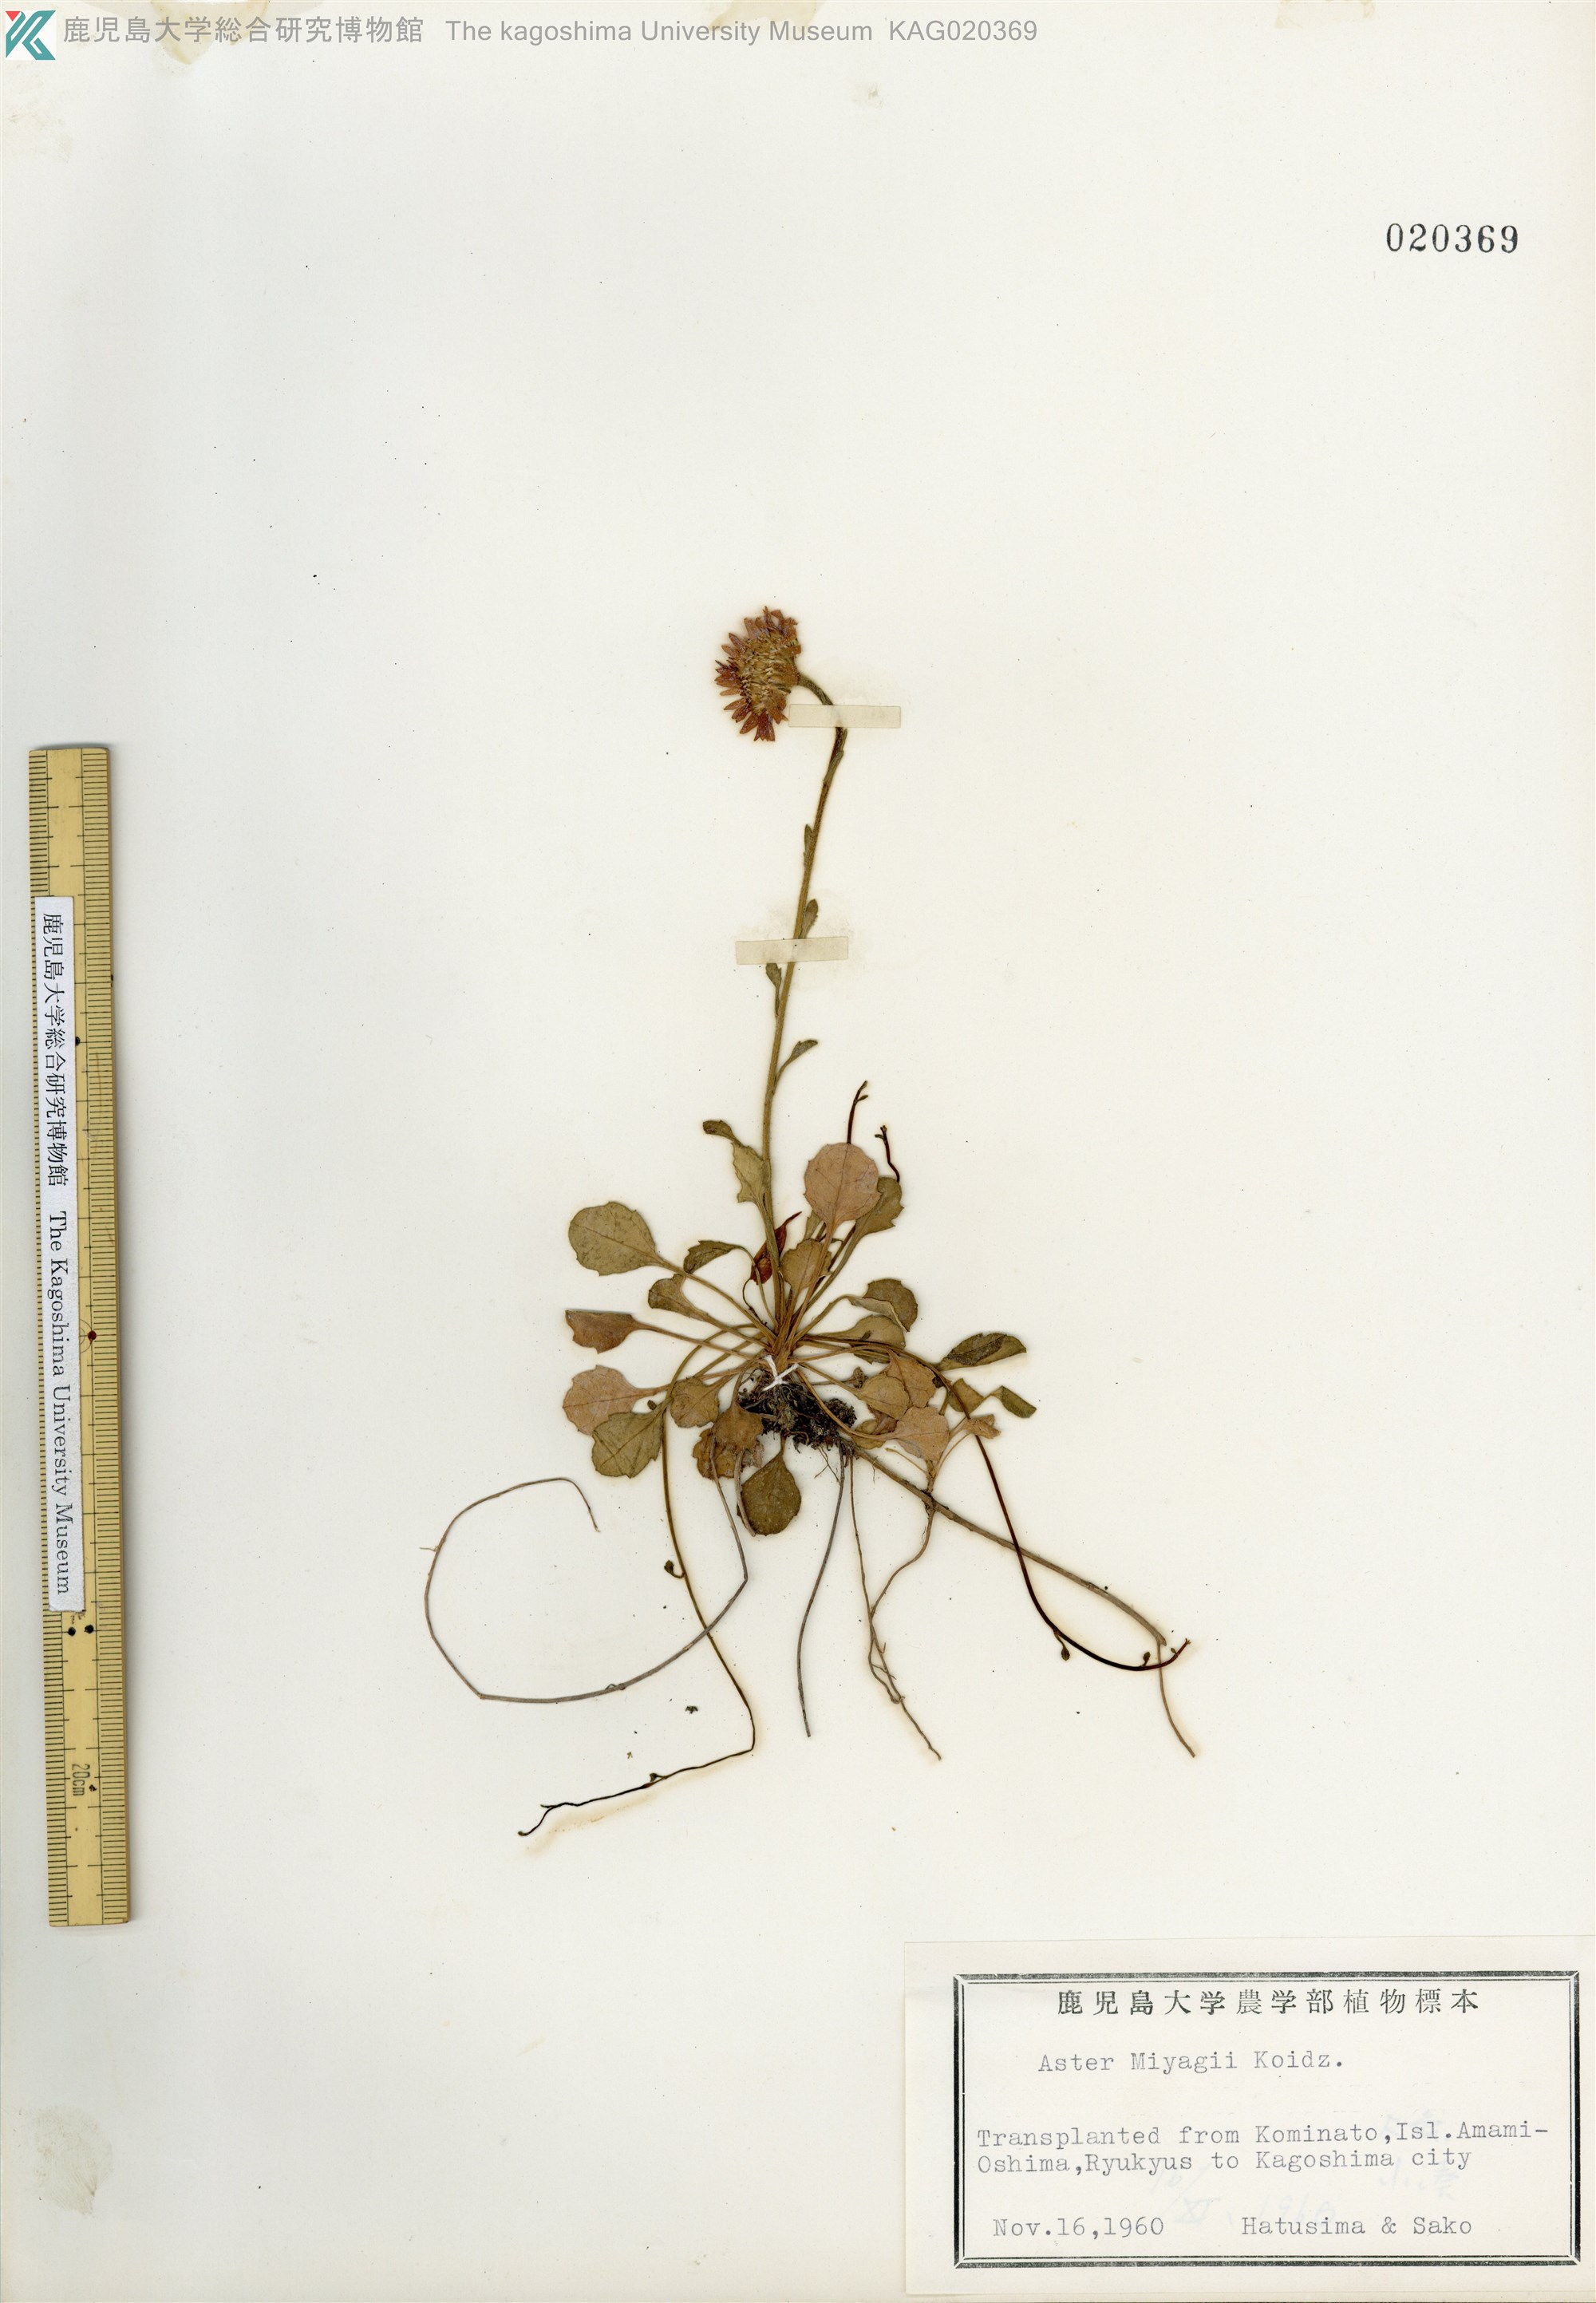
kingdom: Plantae
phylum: Tracheophyta
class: Magnoliopsida
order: Asterales
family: Asteraceae
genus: Aster
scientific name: Aster miyagii
